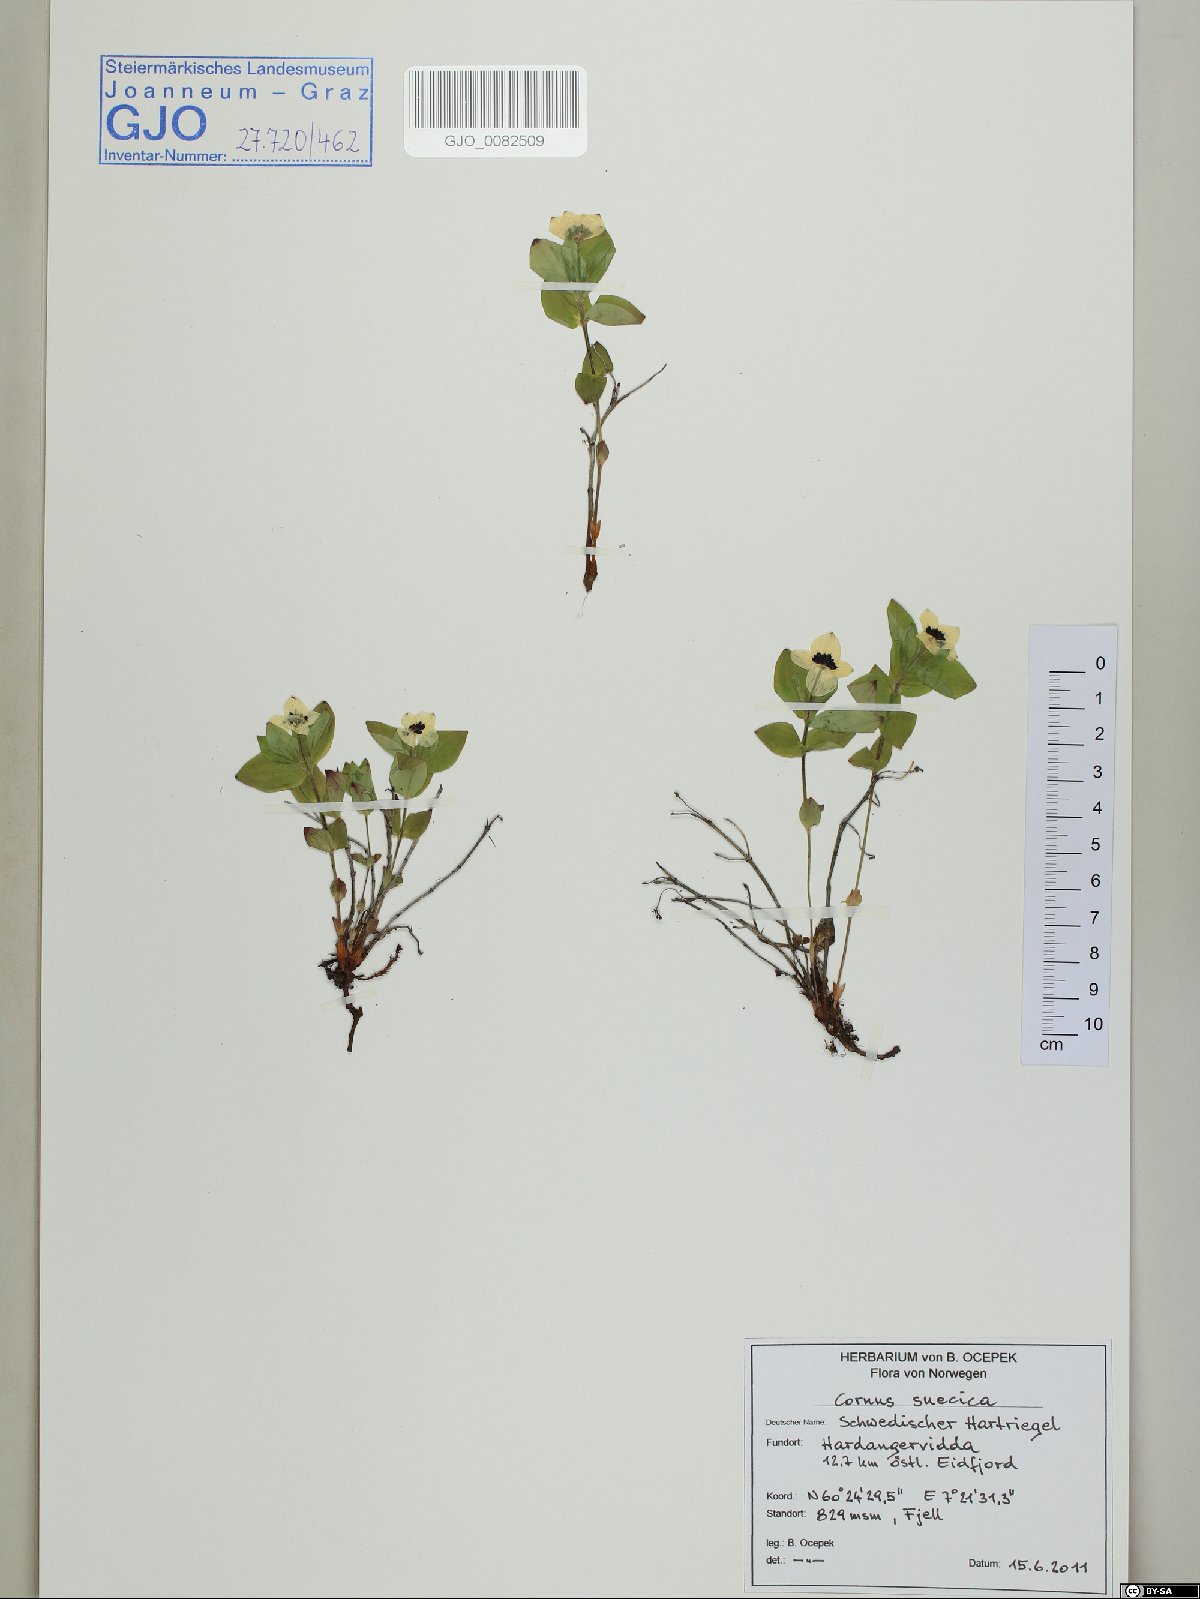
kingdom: Plantae
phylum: Tracheophyta
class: Magnoliopsida
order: Cornales
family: Cornaceae
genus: Cornus
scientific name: Cornus suecica
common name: Dwarf cornel
